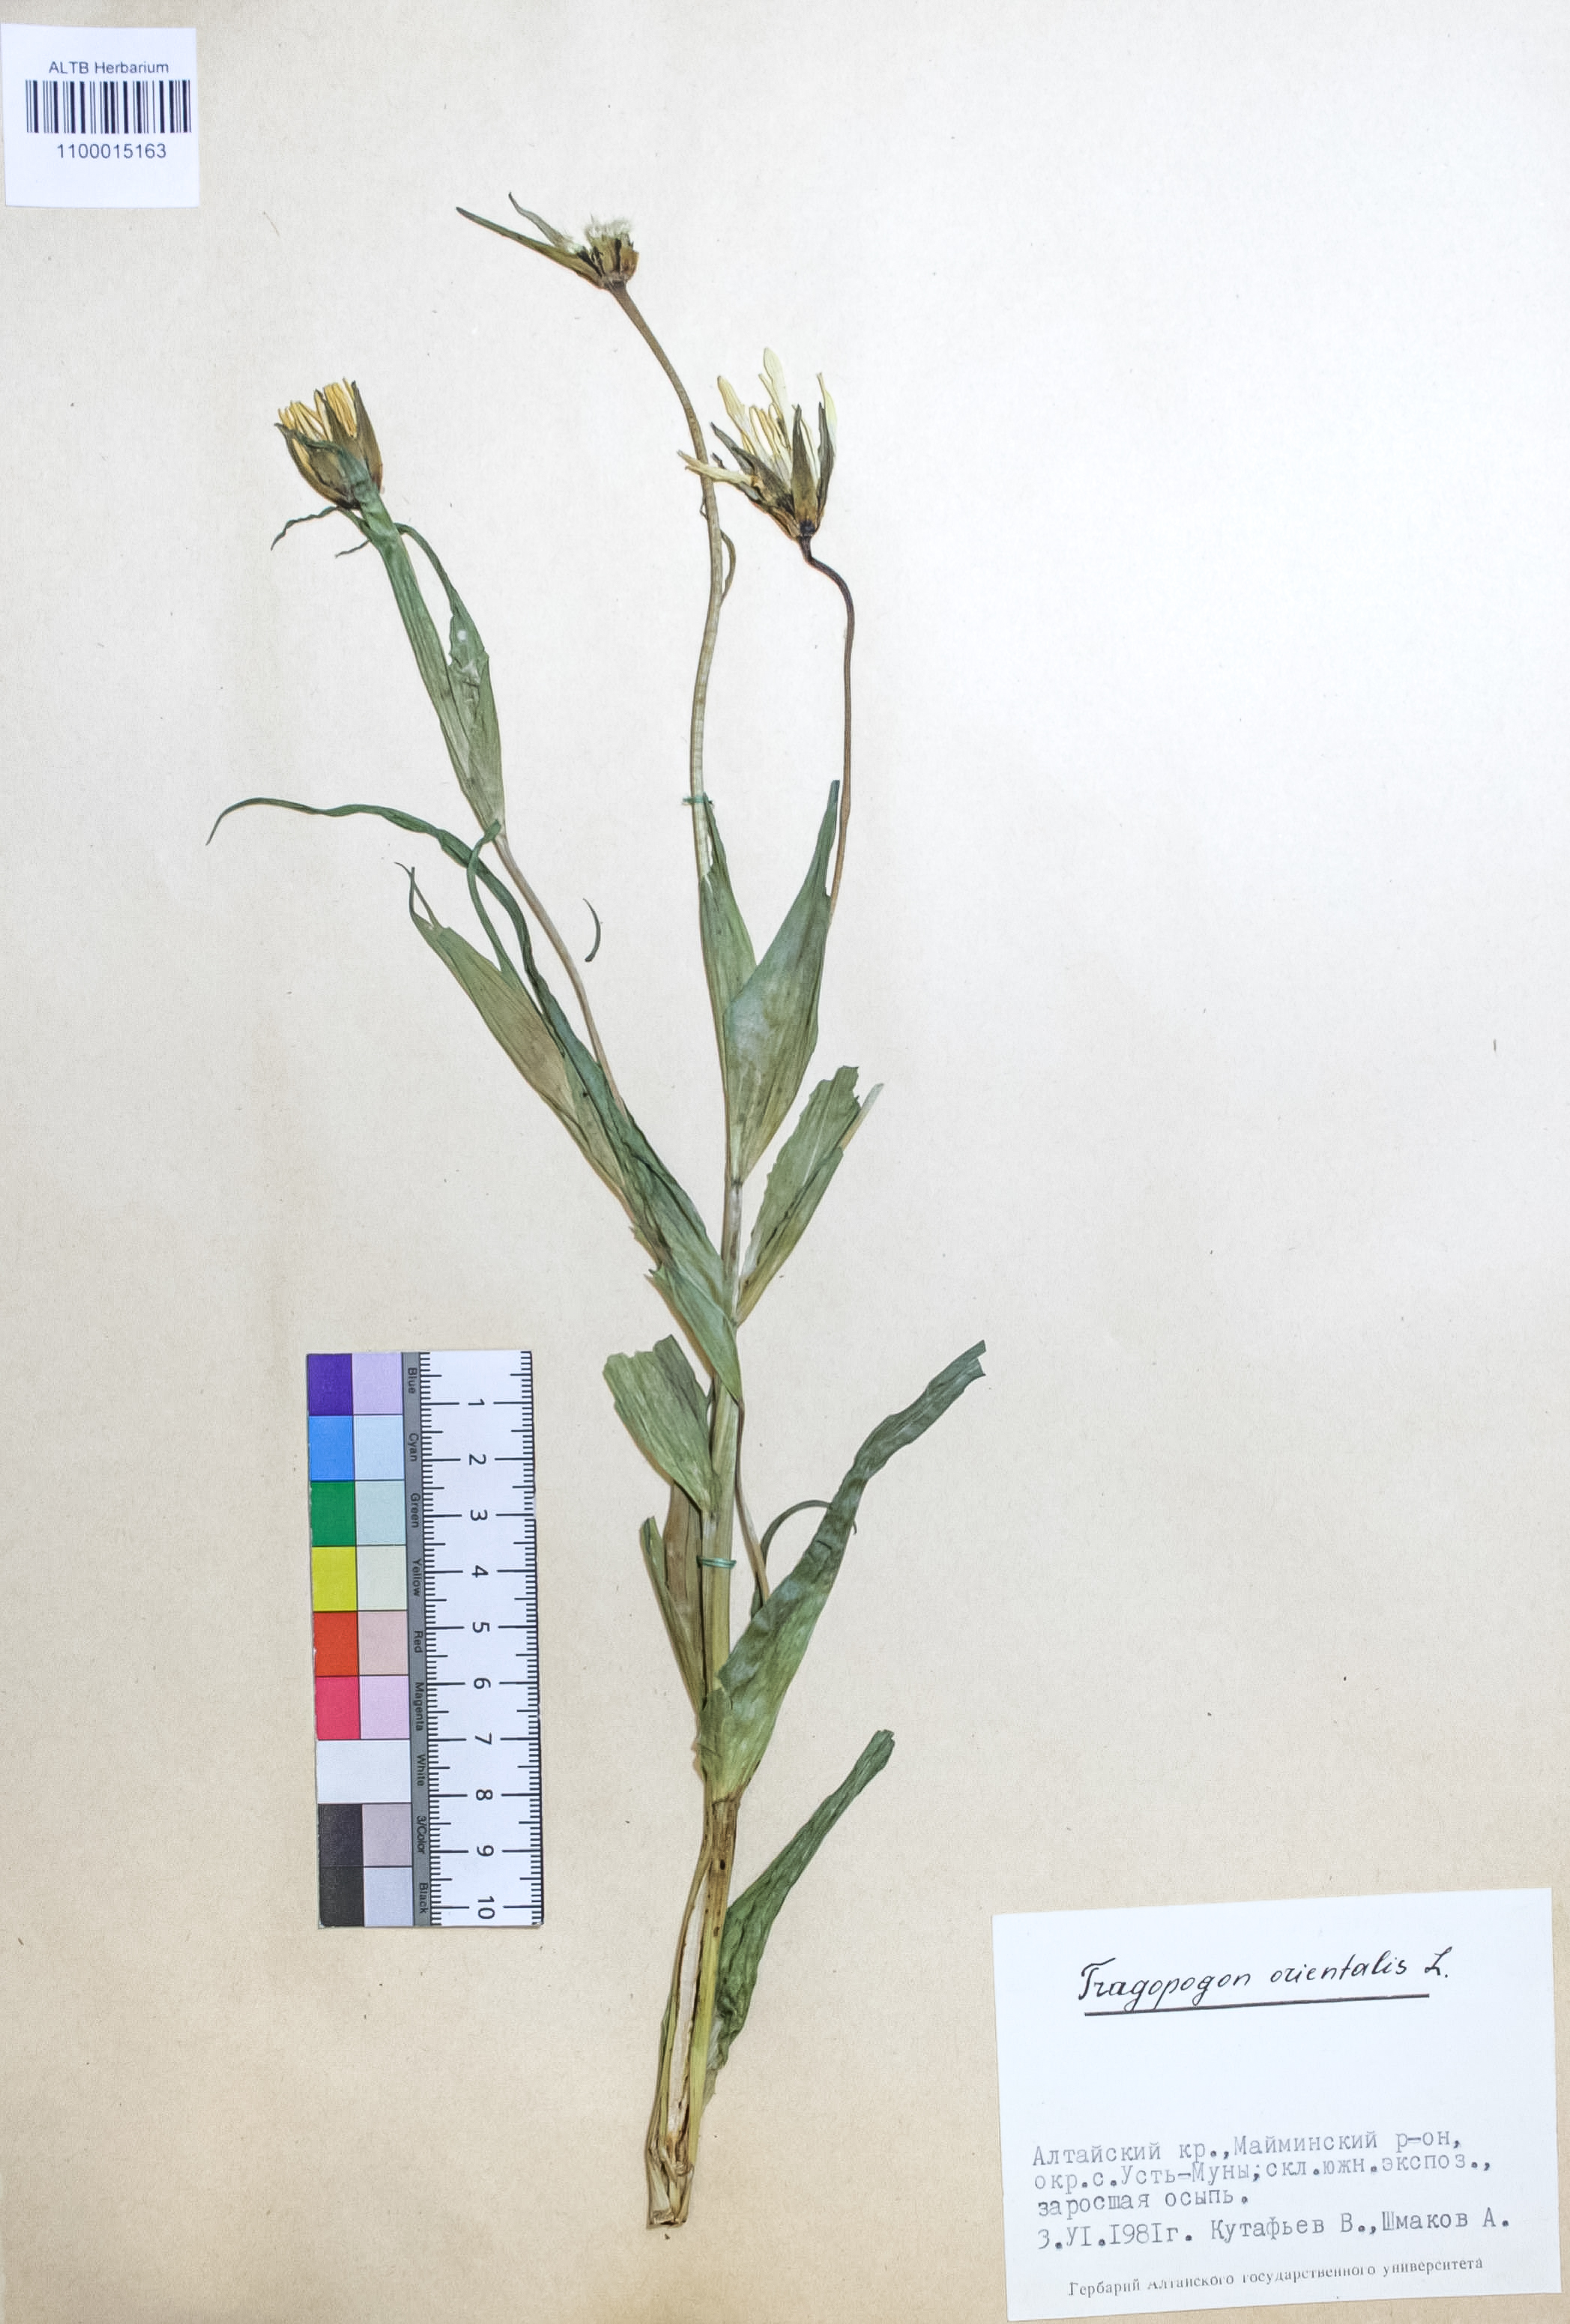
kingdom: Plantae
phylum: Tracheophyta
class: Magnoliopsida
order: Asterales
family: Asteraceae
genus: Tragopogon
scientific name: Tragopogon orientalis
